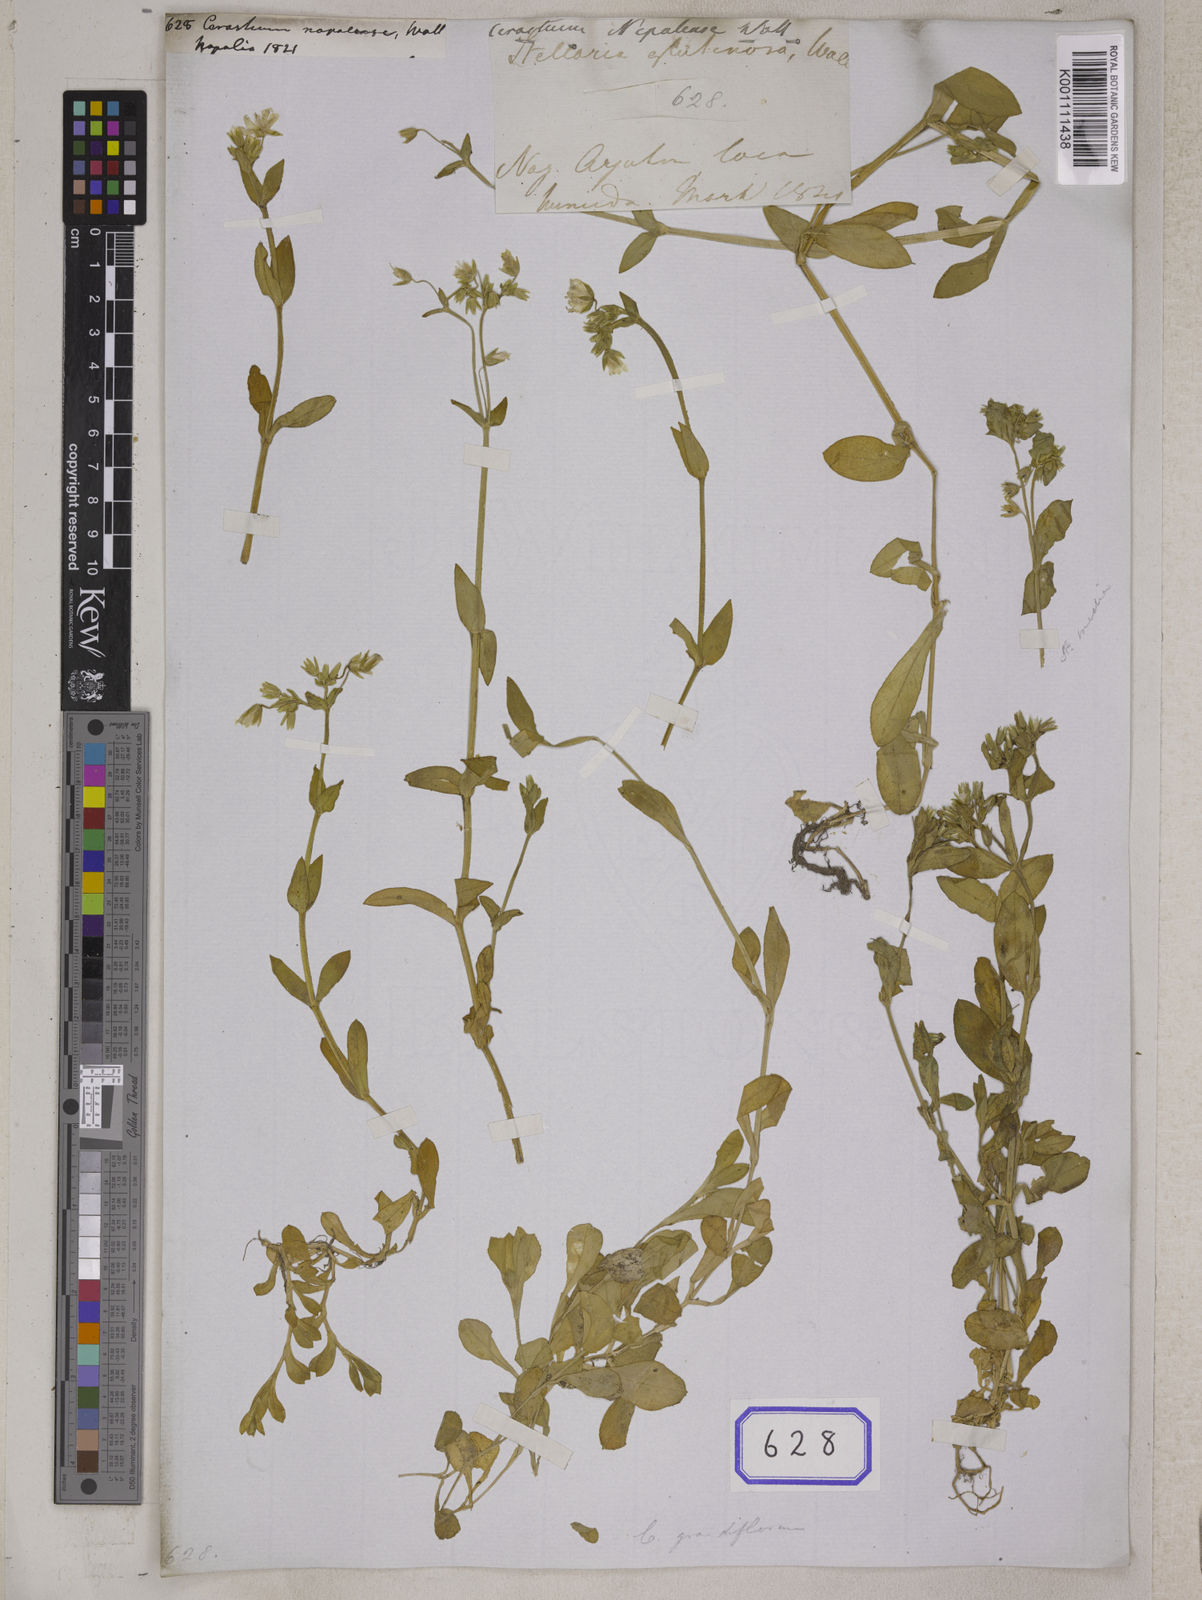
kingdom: Plantae
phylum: Tracheophyta
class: Magnoliopsida
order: Caryophyllales
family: Caryophyllaceae
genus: Cerastium
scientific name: Cerastium thomsonii
